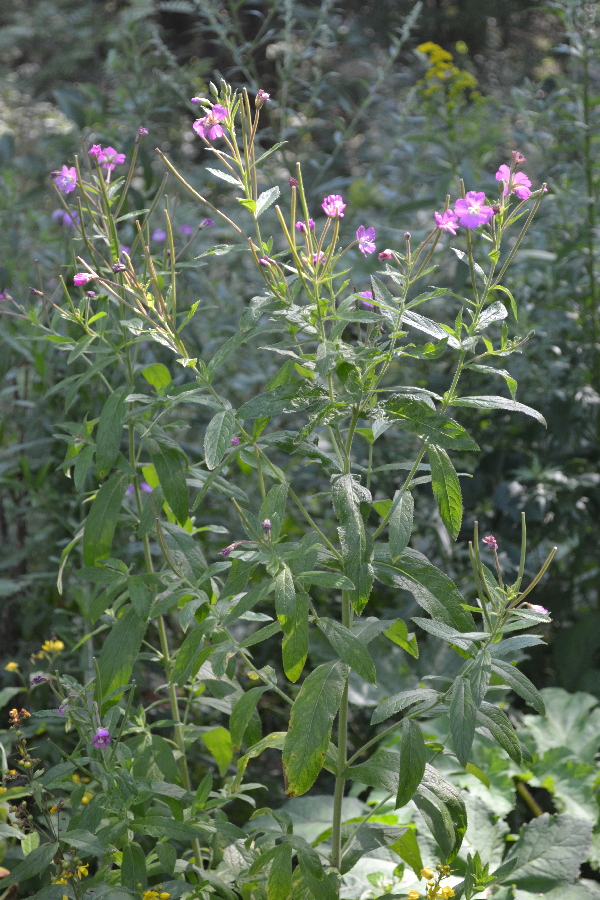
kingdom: Plantae
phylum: Tracheophyta
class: Magnoliopsida
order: Myrtales
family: Onagraceae
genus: Epilobium
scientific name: Epilobium roseum
